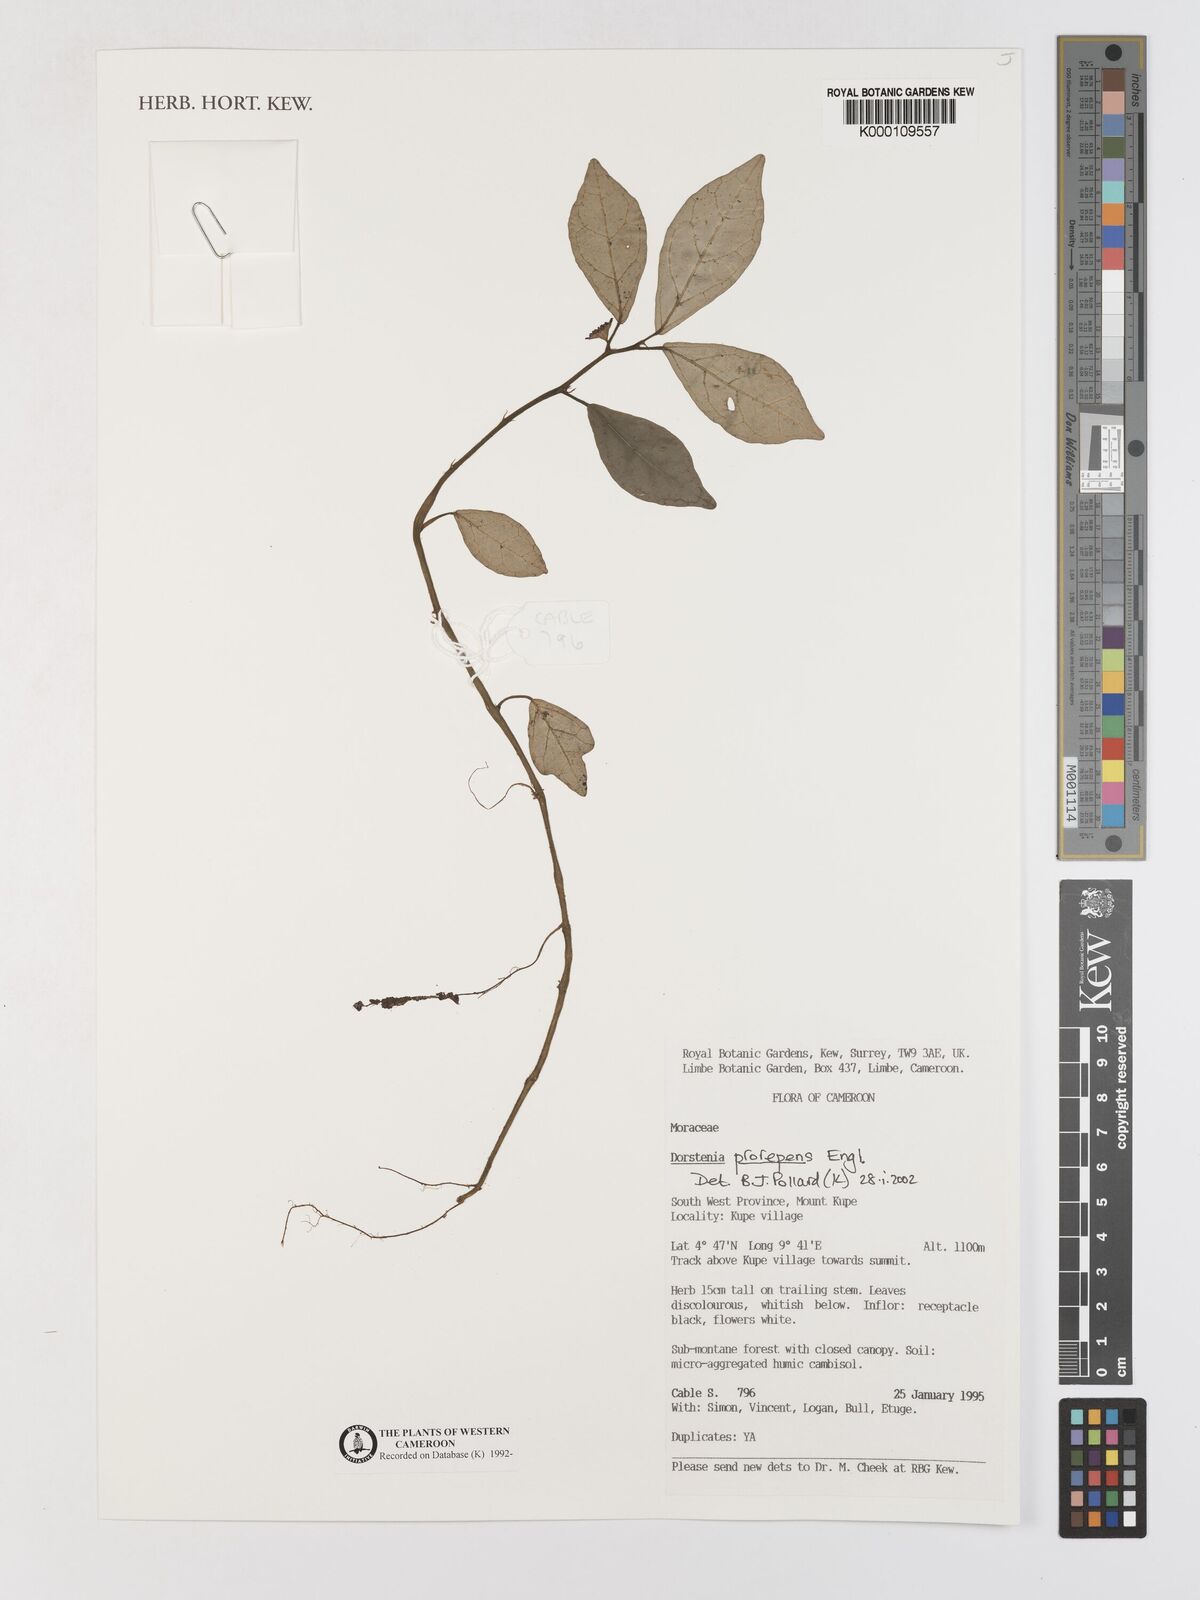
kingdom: Plantae
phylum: Tracheophyta
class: Magnoliopsida
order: Rosales
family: Moraceae
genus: Dorstenia
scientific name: Dorstenia prorepens
